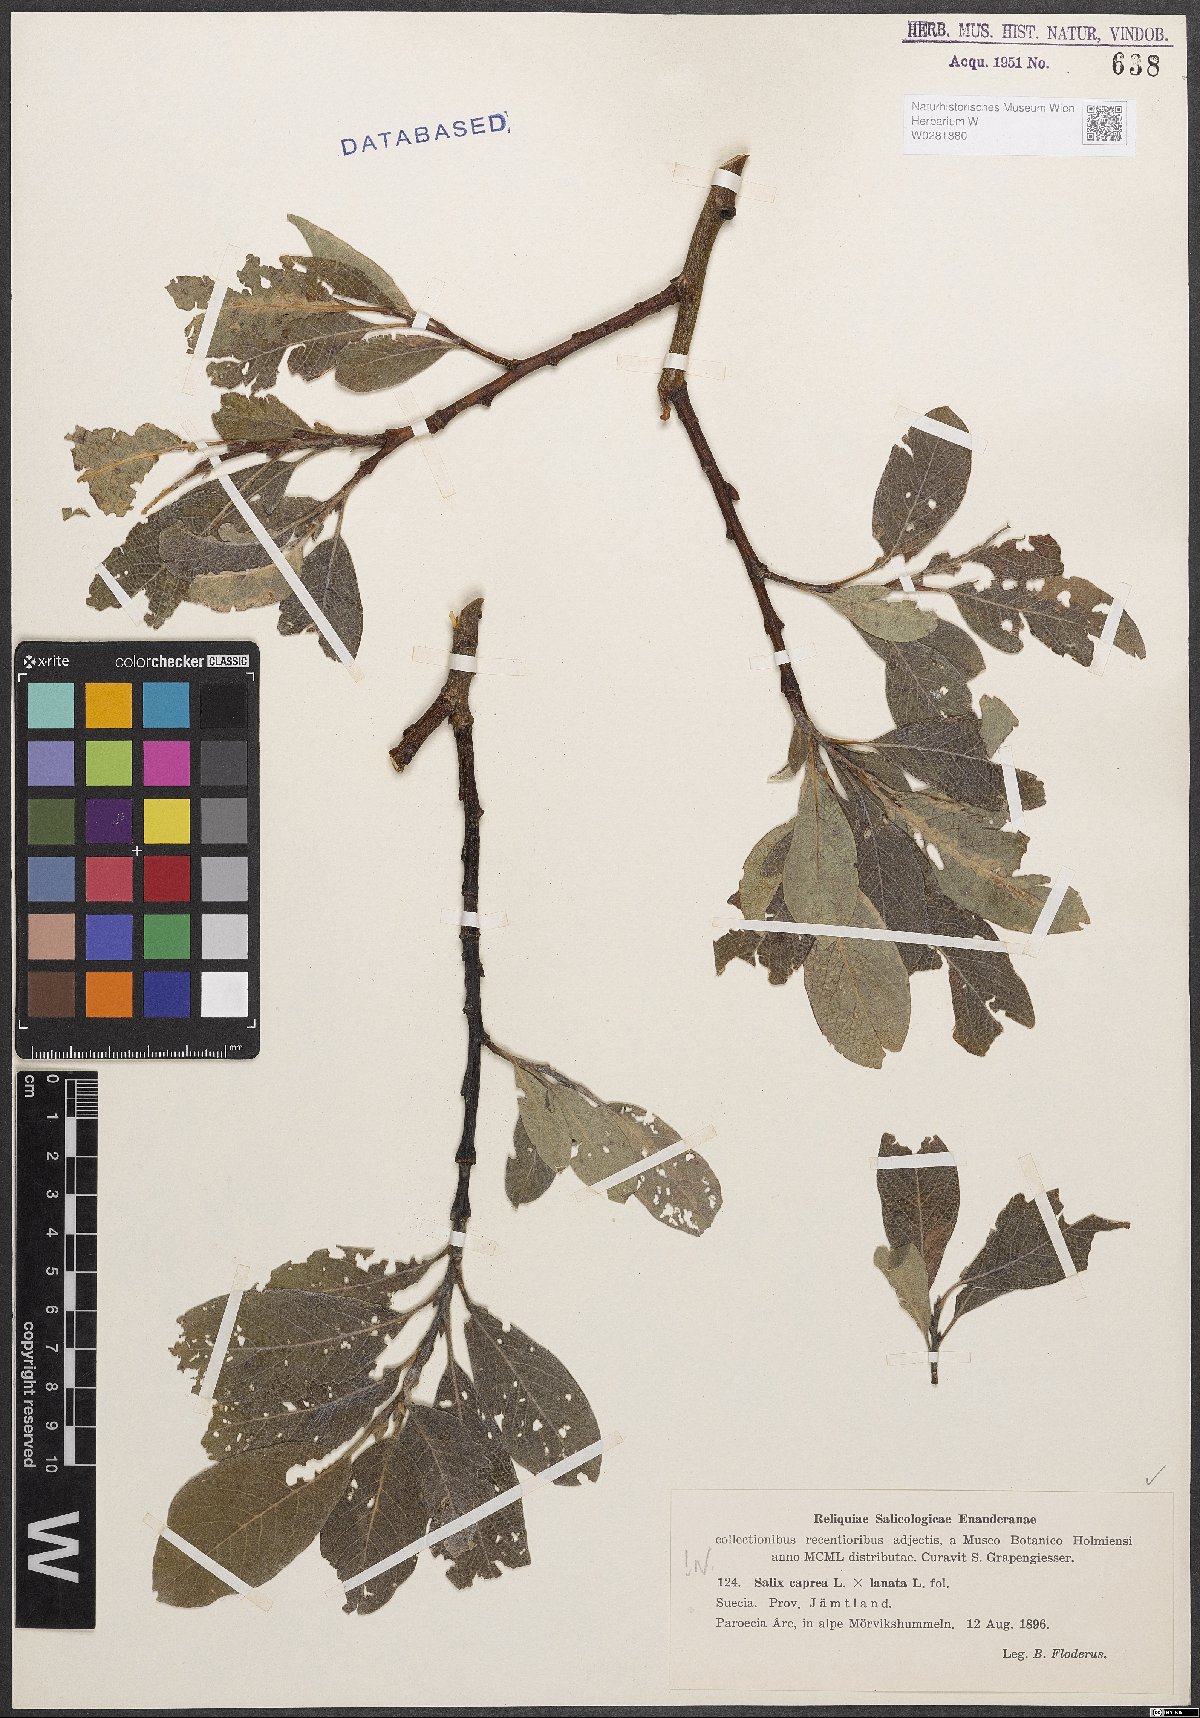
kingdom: Plantae
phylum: Tracheophyta
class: Magnoliopsida
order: Malpighiales
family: Salicaceae
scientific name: Salicaceae
